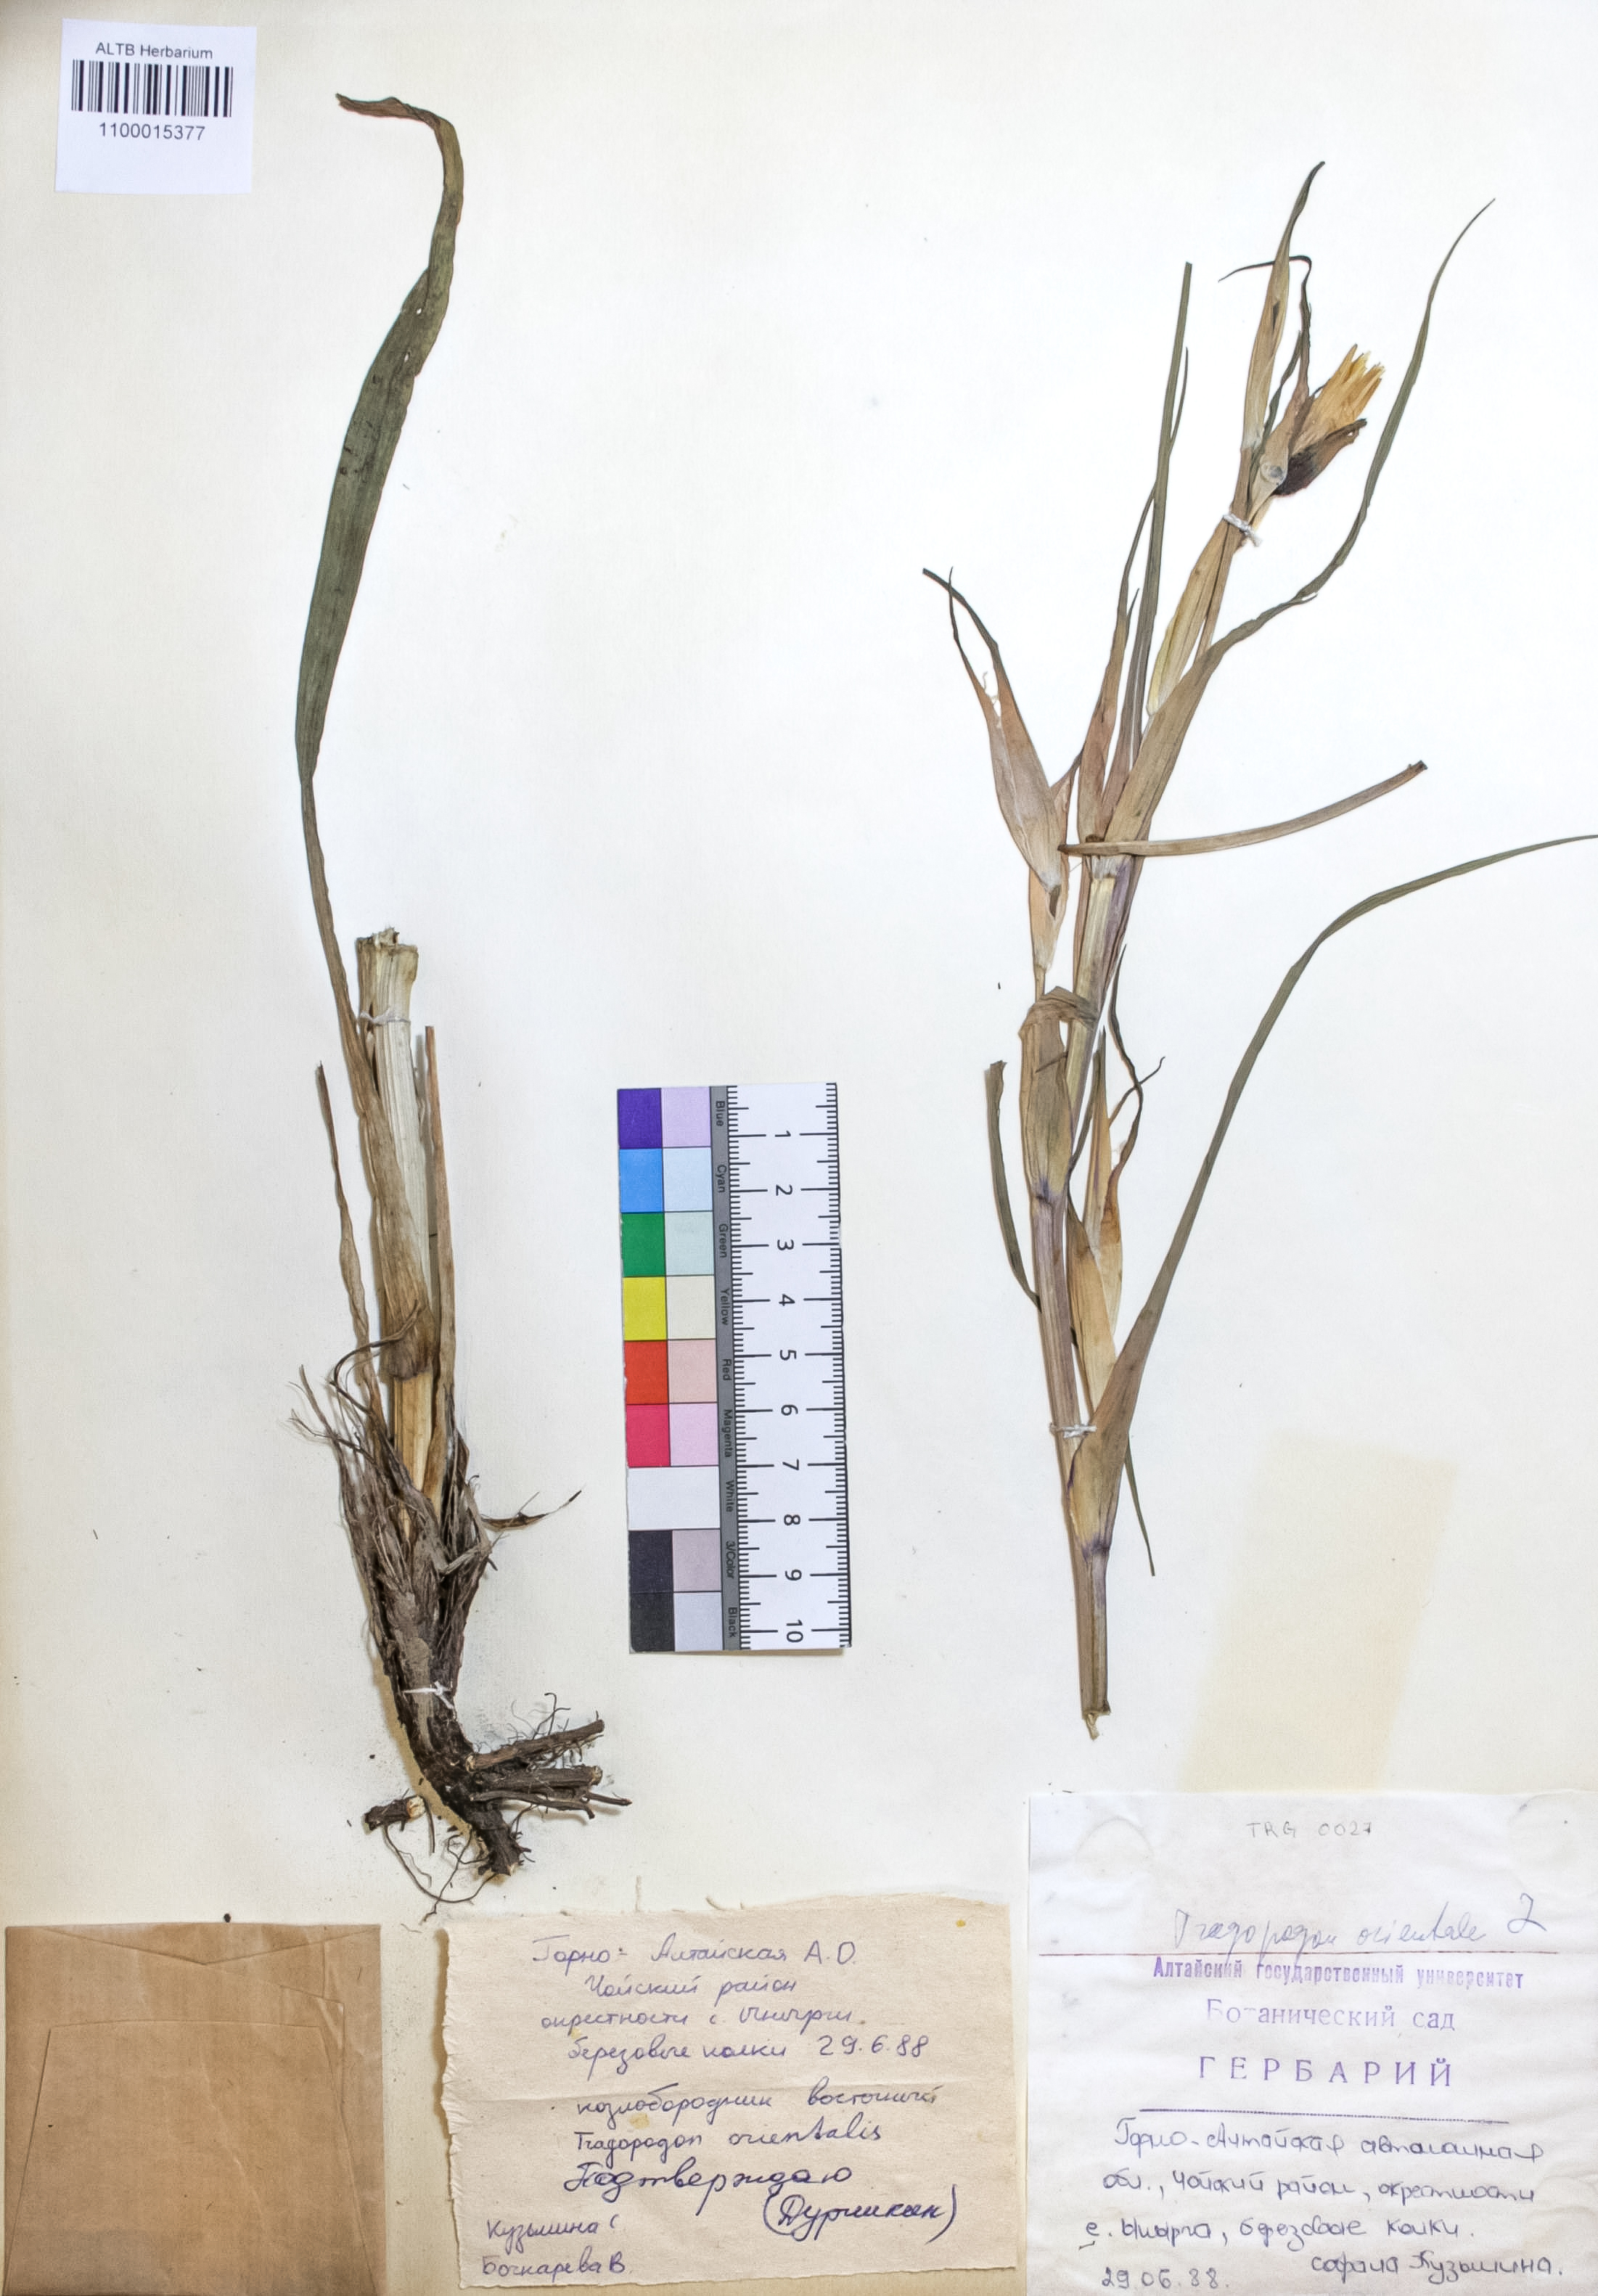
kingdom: Plantae
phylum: Tracheophyta
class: Magnoliopsida
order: Asterales
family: Asteraceae
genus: Tragopogon
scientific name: Tragopogon orientalis
